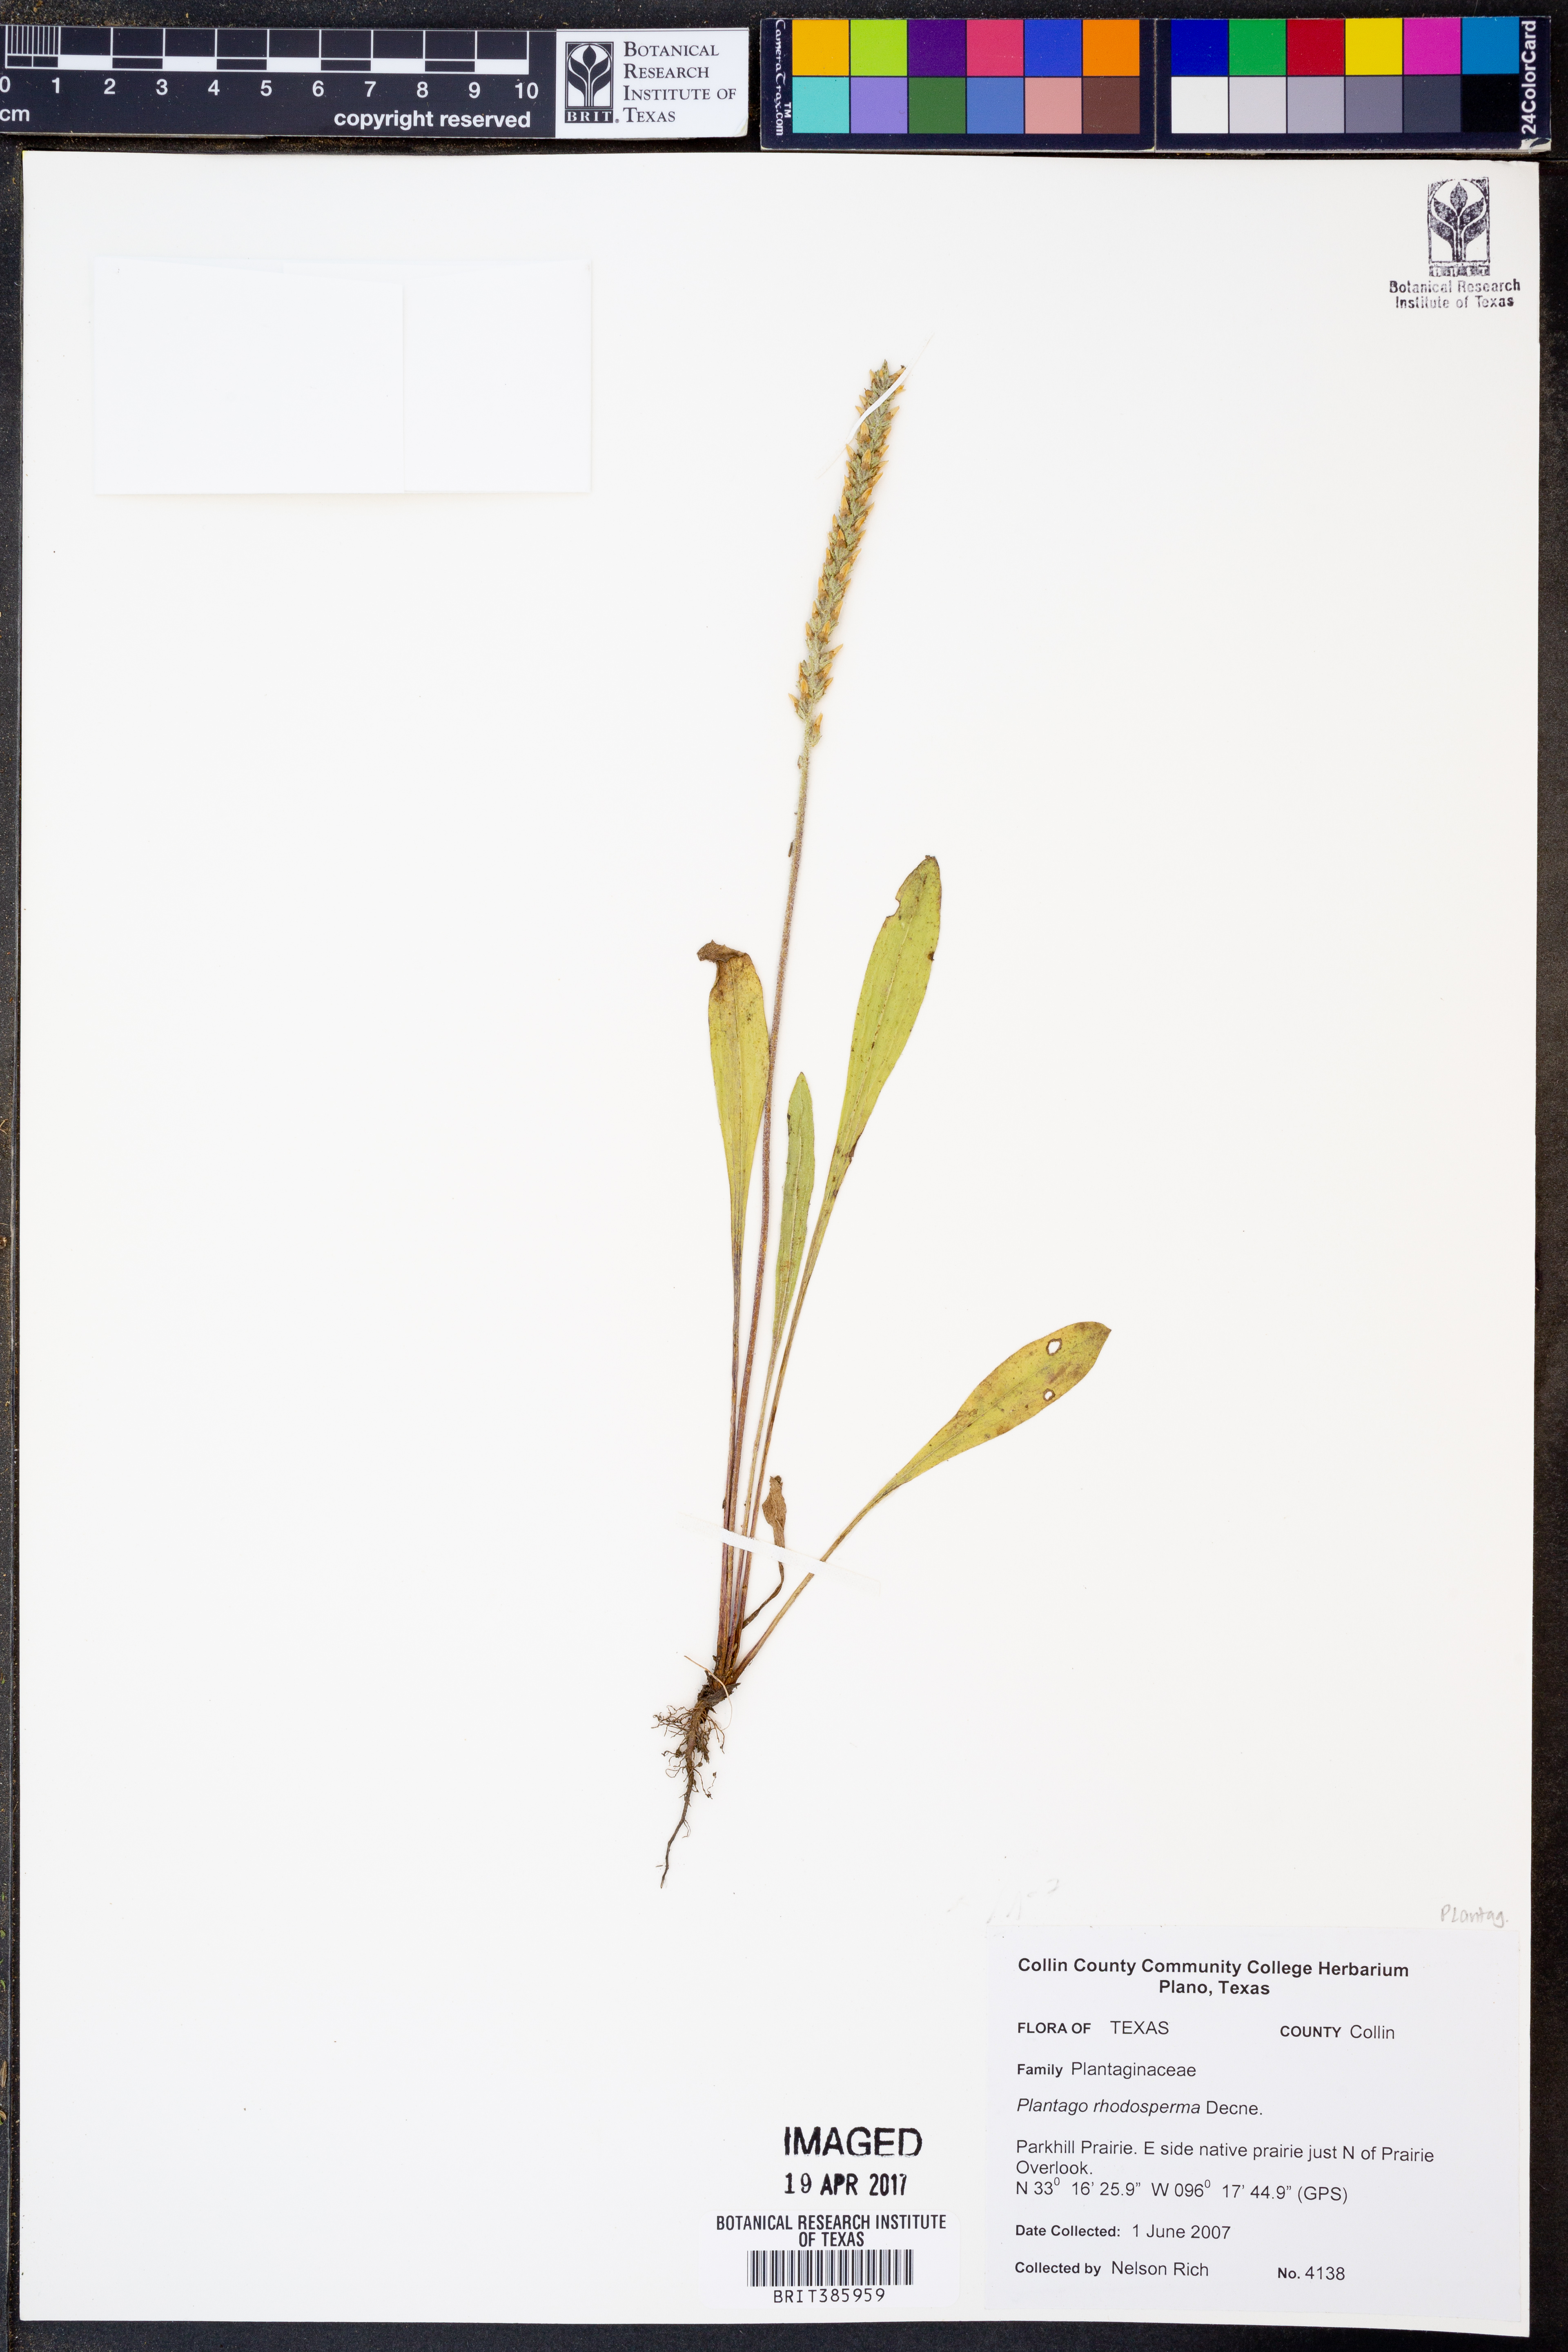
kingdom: Plantae
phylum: Tracheophyta
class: Magnoliopsida
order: Lamiales
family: Plantaginaceae
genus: Plantago
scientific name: Plantago rhodosperma
